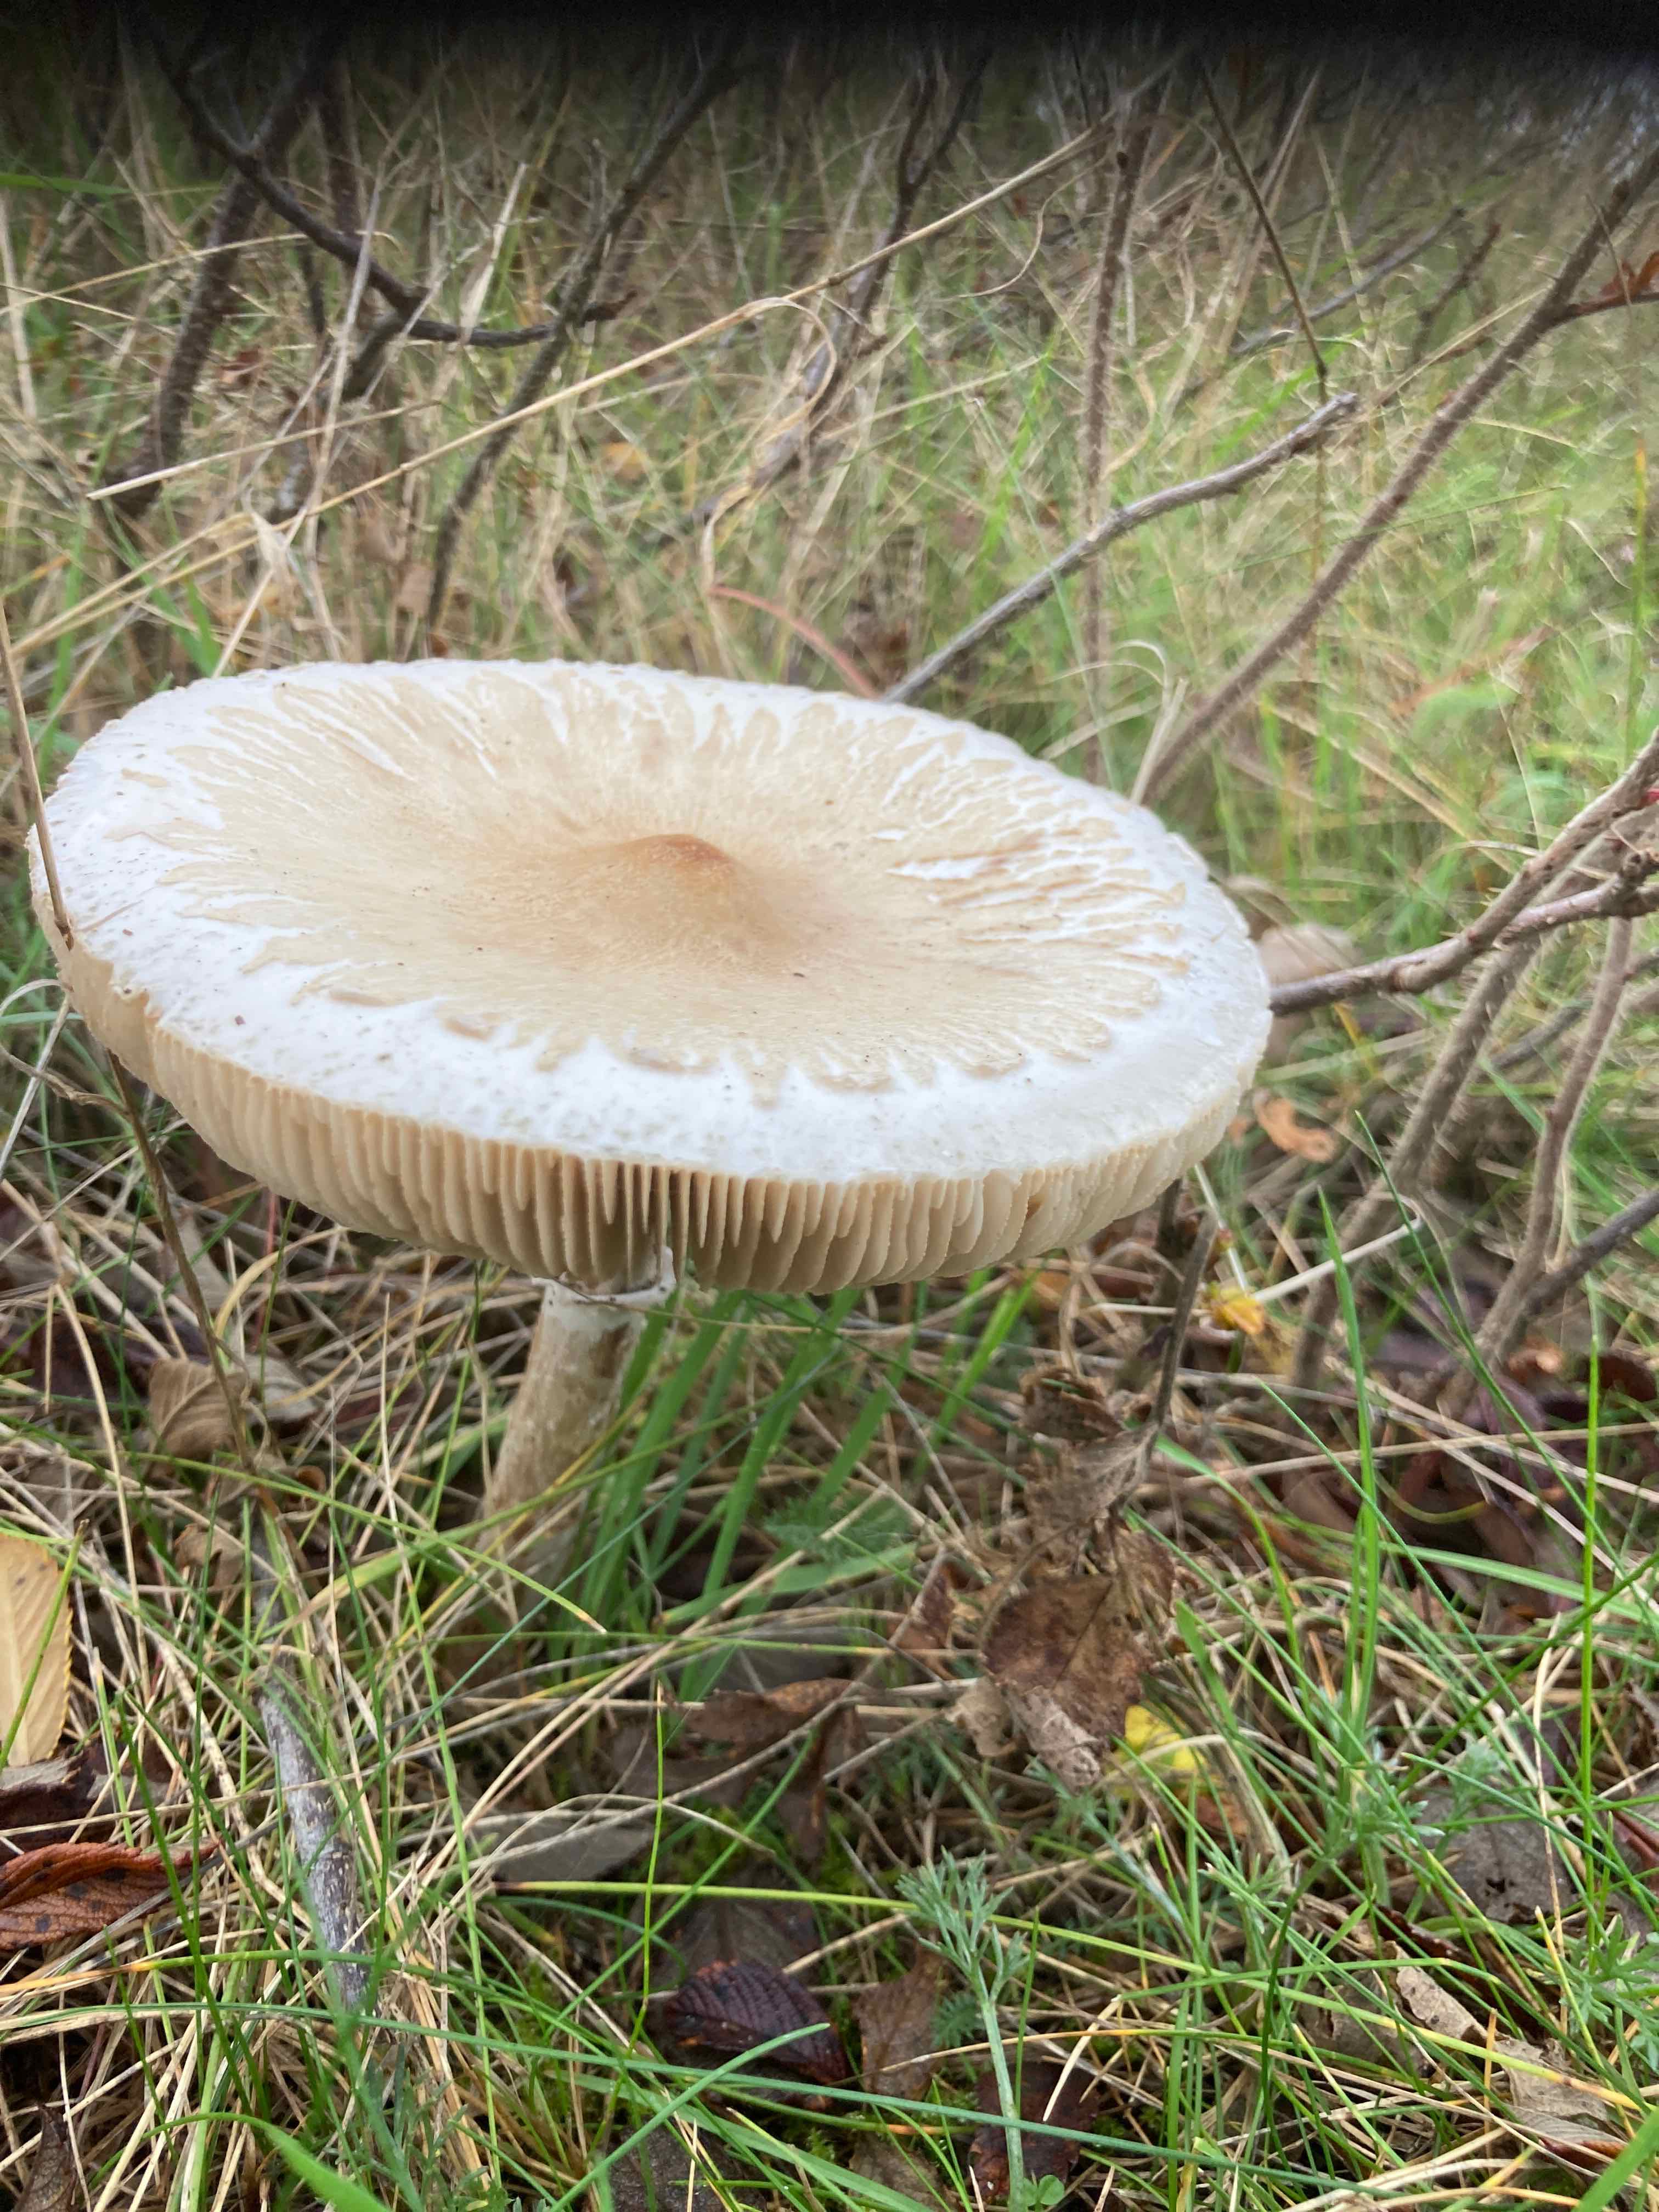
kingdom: Fungi
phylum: Basidiomycota
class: Agaricomycetes
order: Agaricales
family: Agaricaceae
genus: Macrolepiota
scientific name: Macrolepiota excoriata
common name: mark-kæmpeparasolhat
